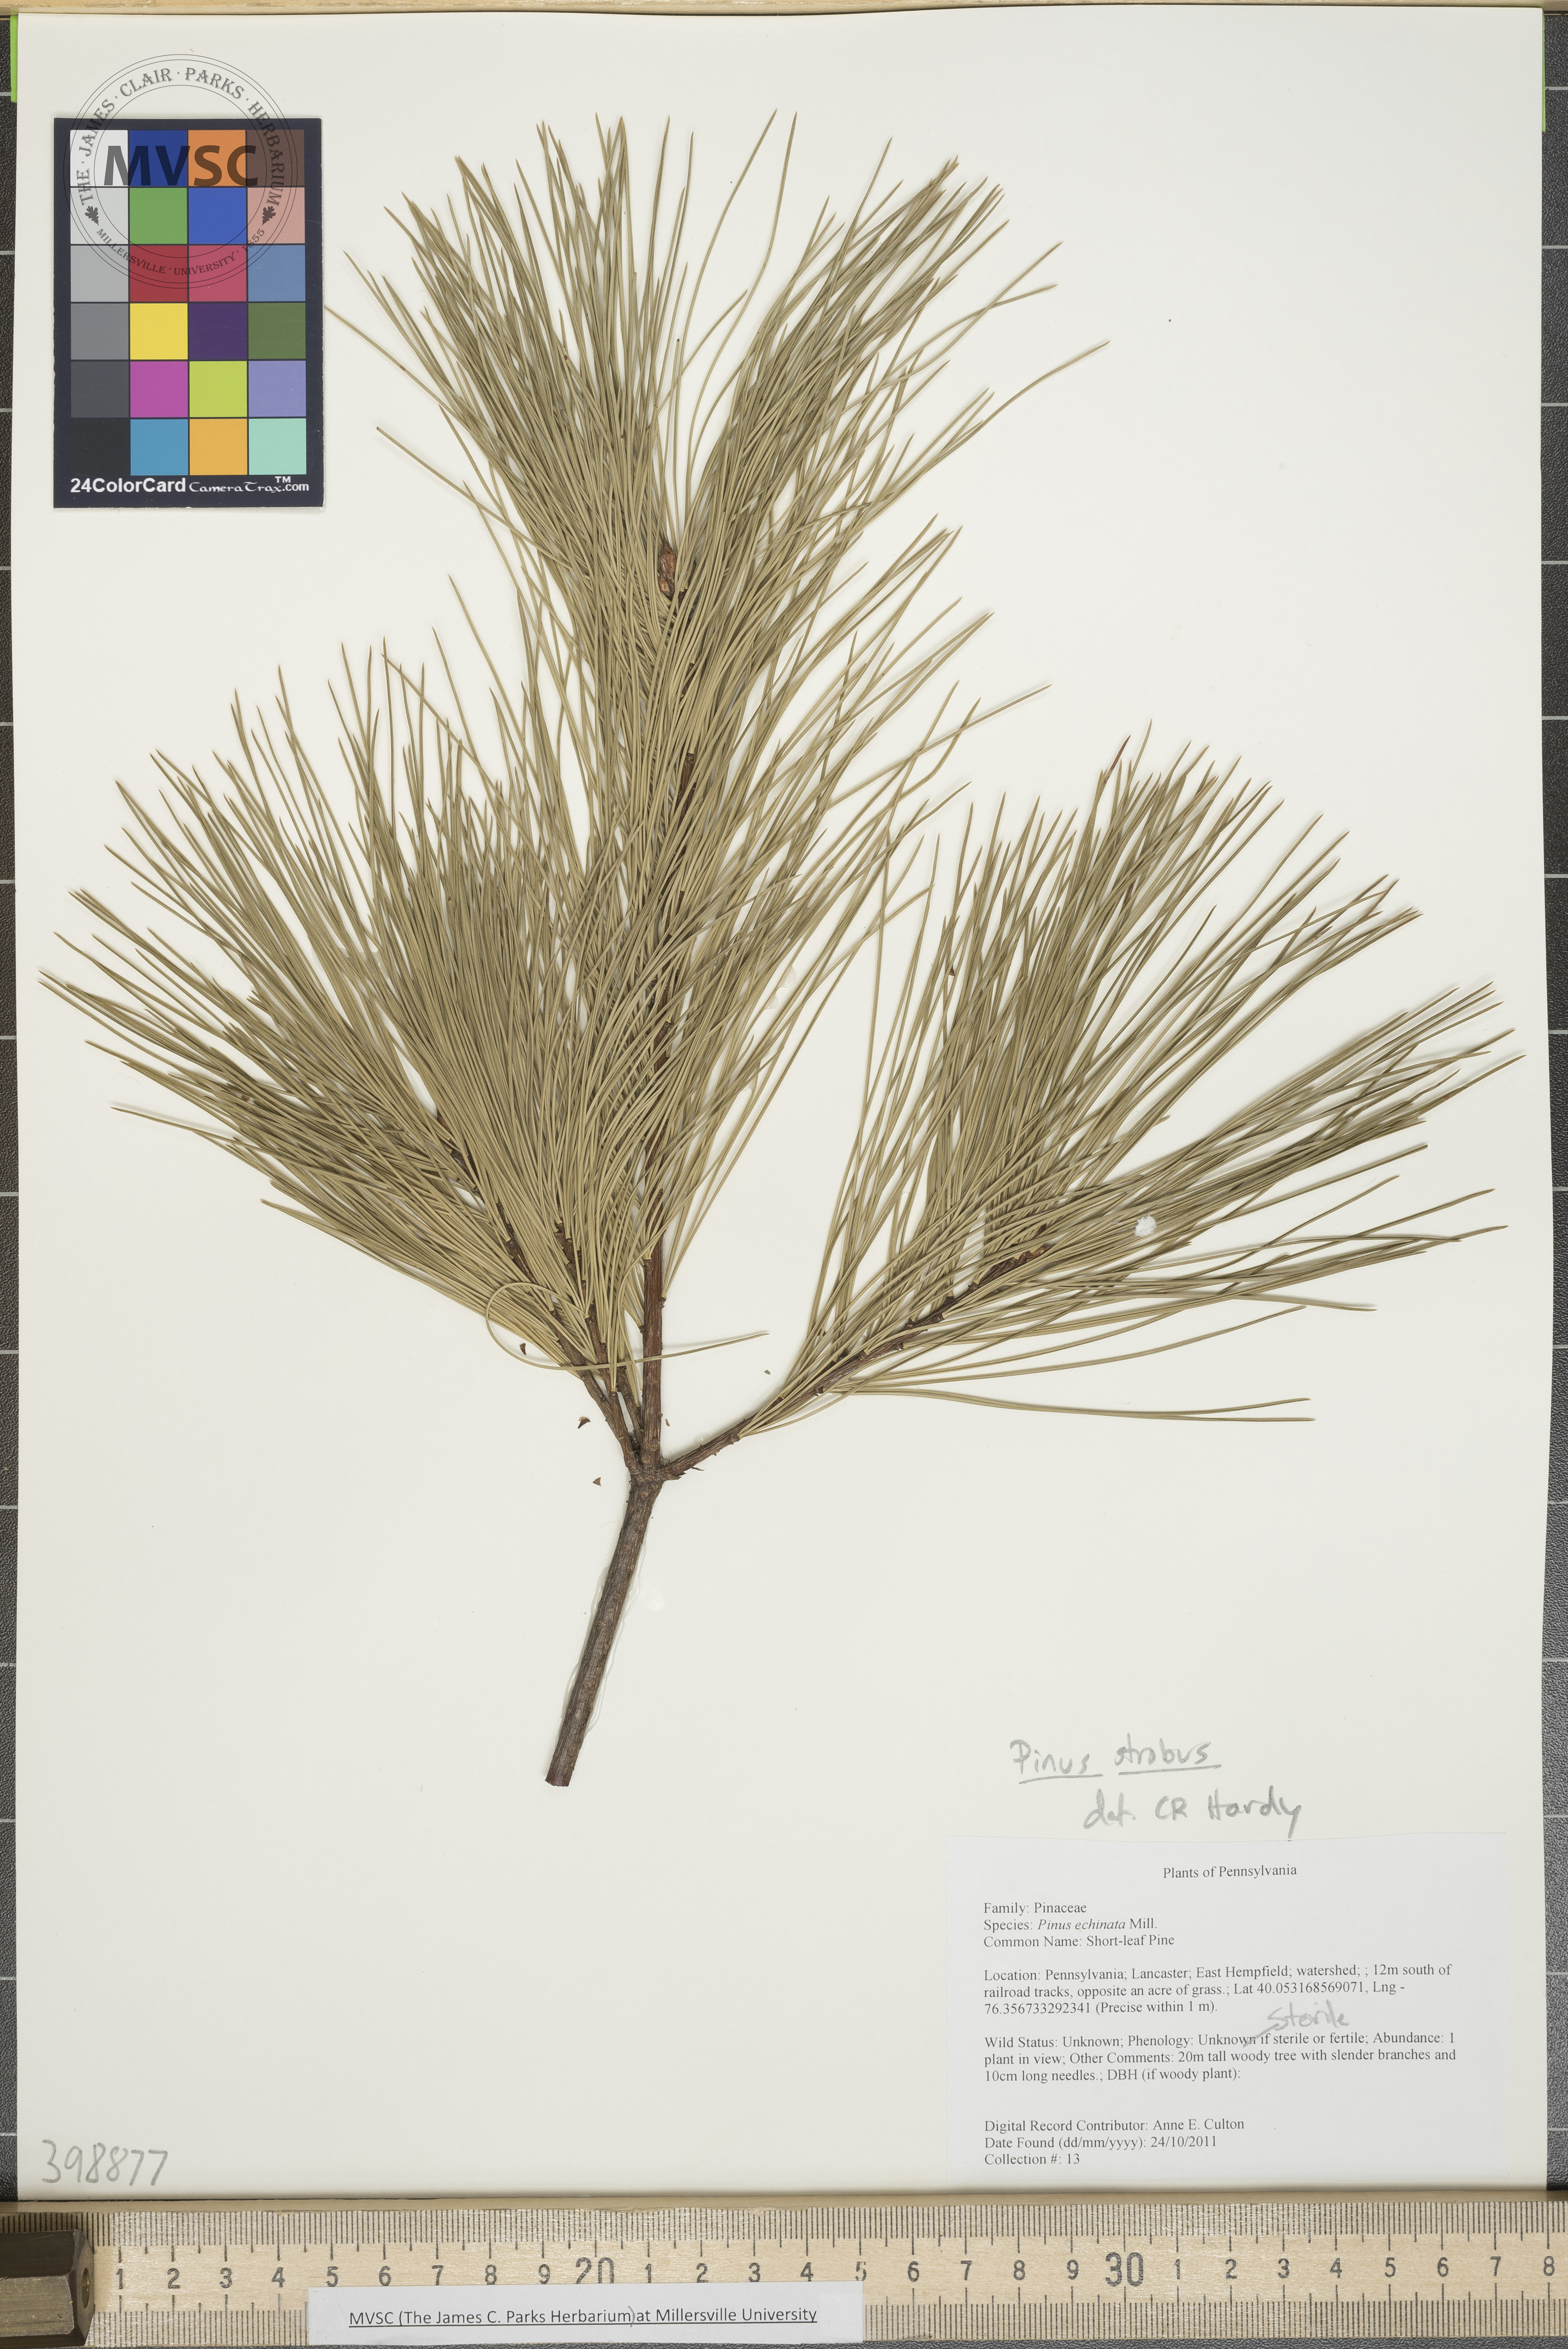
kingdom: Plantae
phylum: Tracheophyta
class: Pinopsida
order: Pinales
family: Pinaceae
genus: Pinus
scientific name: Pinus strobus
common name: Eastern white pine
